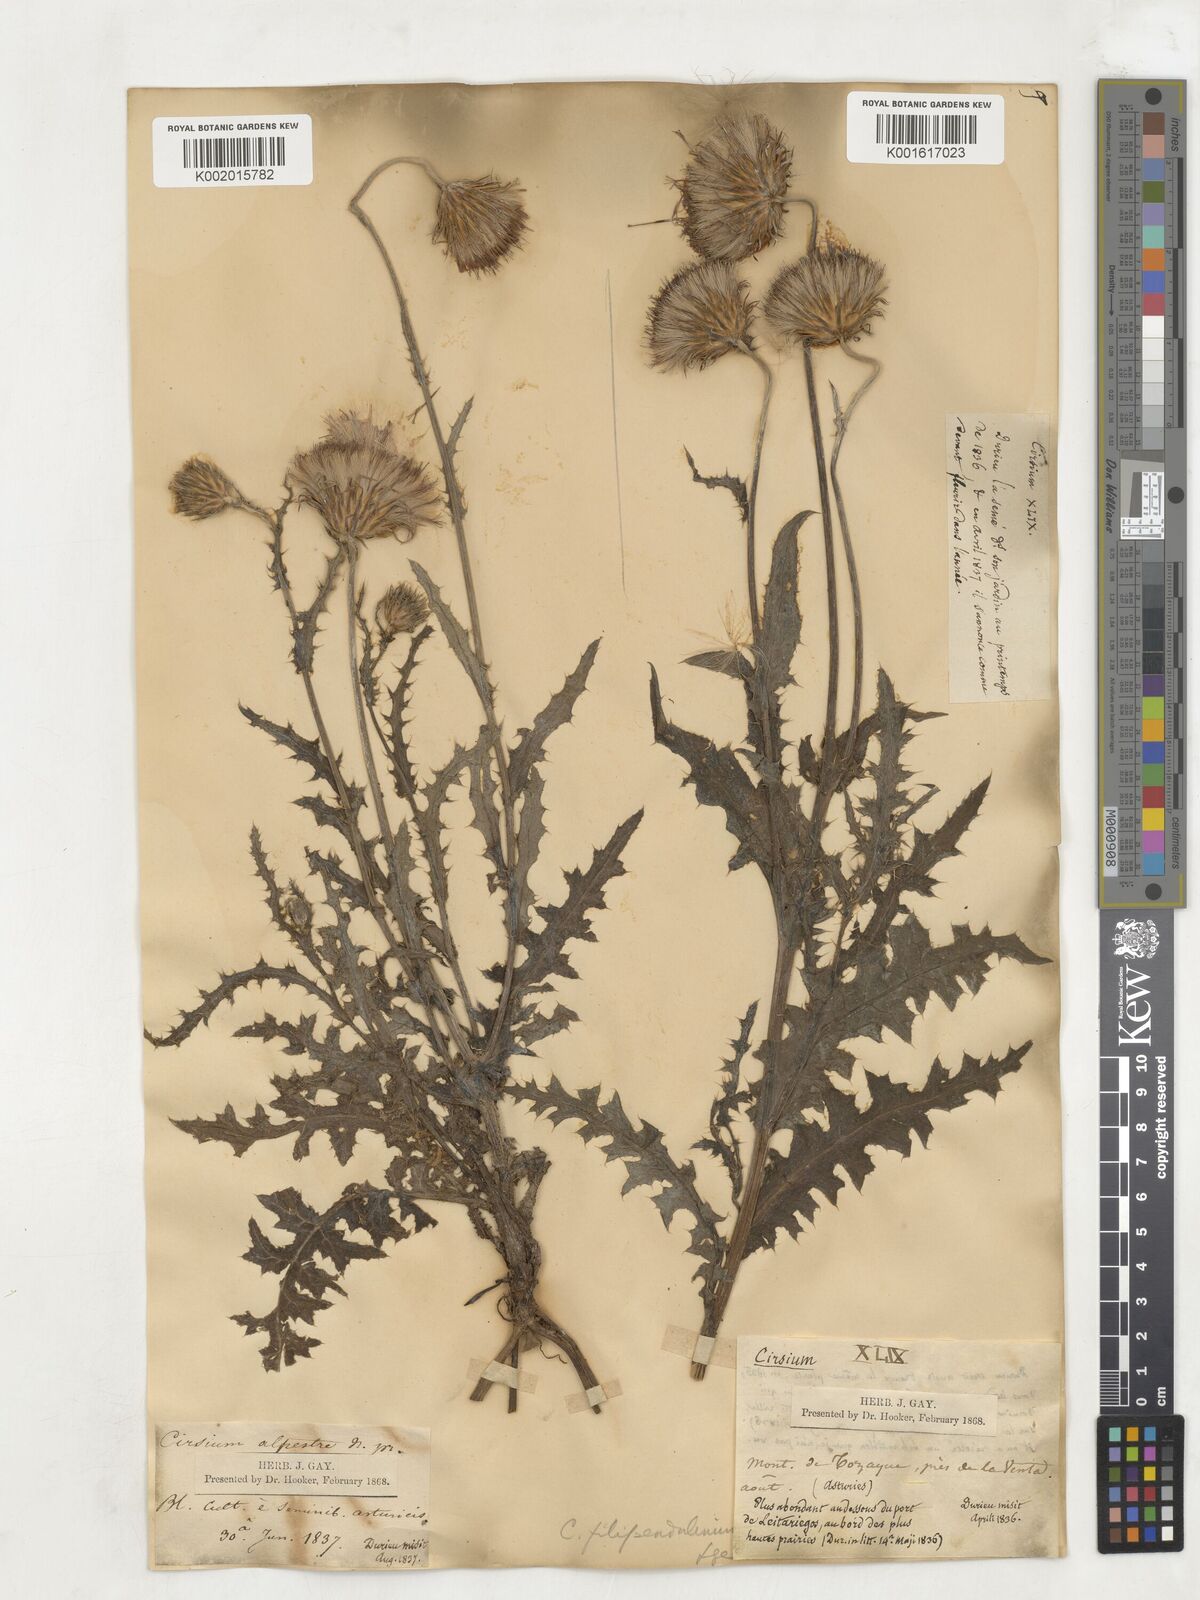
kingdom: Plantae
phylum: Tracheophyta
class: Magnoliopsida
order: Asterales
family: Asteraceae
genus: Cirsium
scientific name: Cirsium filipendulum
